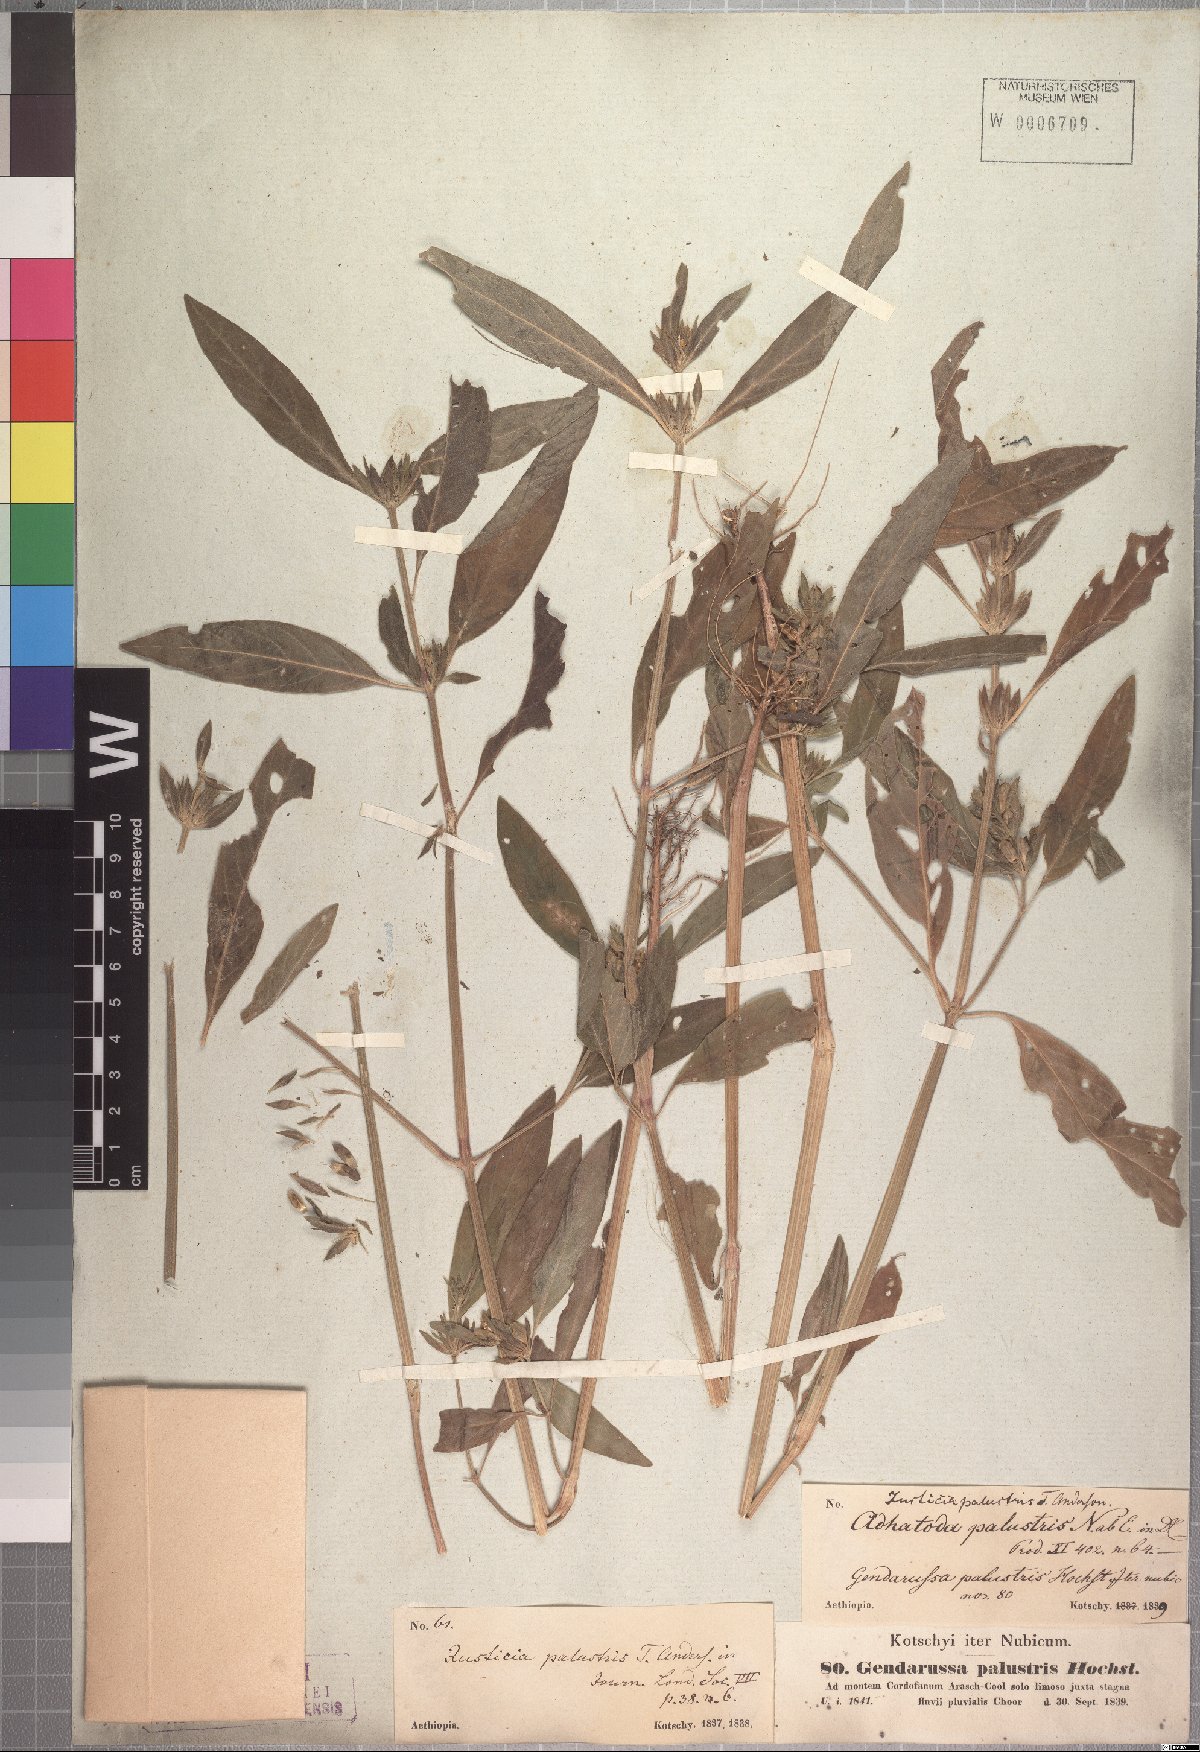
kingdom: Plantae
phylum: Tracheophyta
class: Magnoliopsida
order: Lamiales
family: Acanthaceae
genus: Justicia
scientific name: Justicia flava
